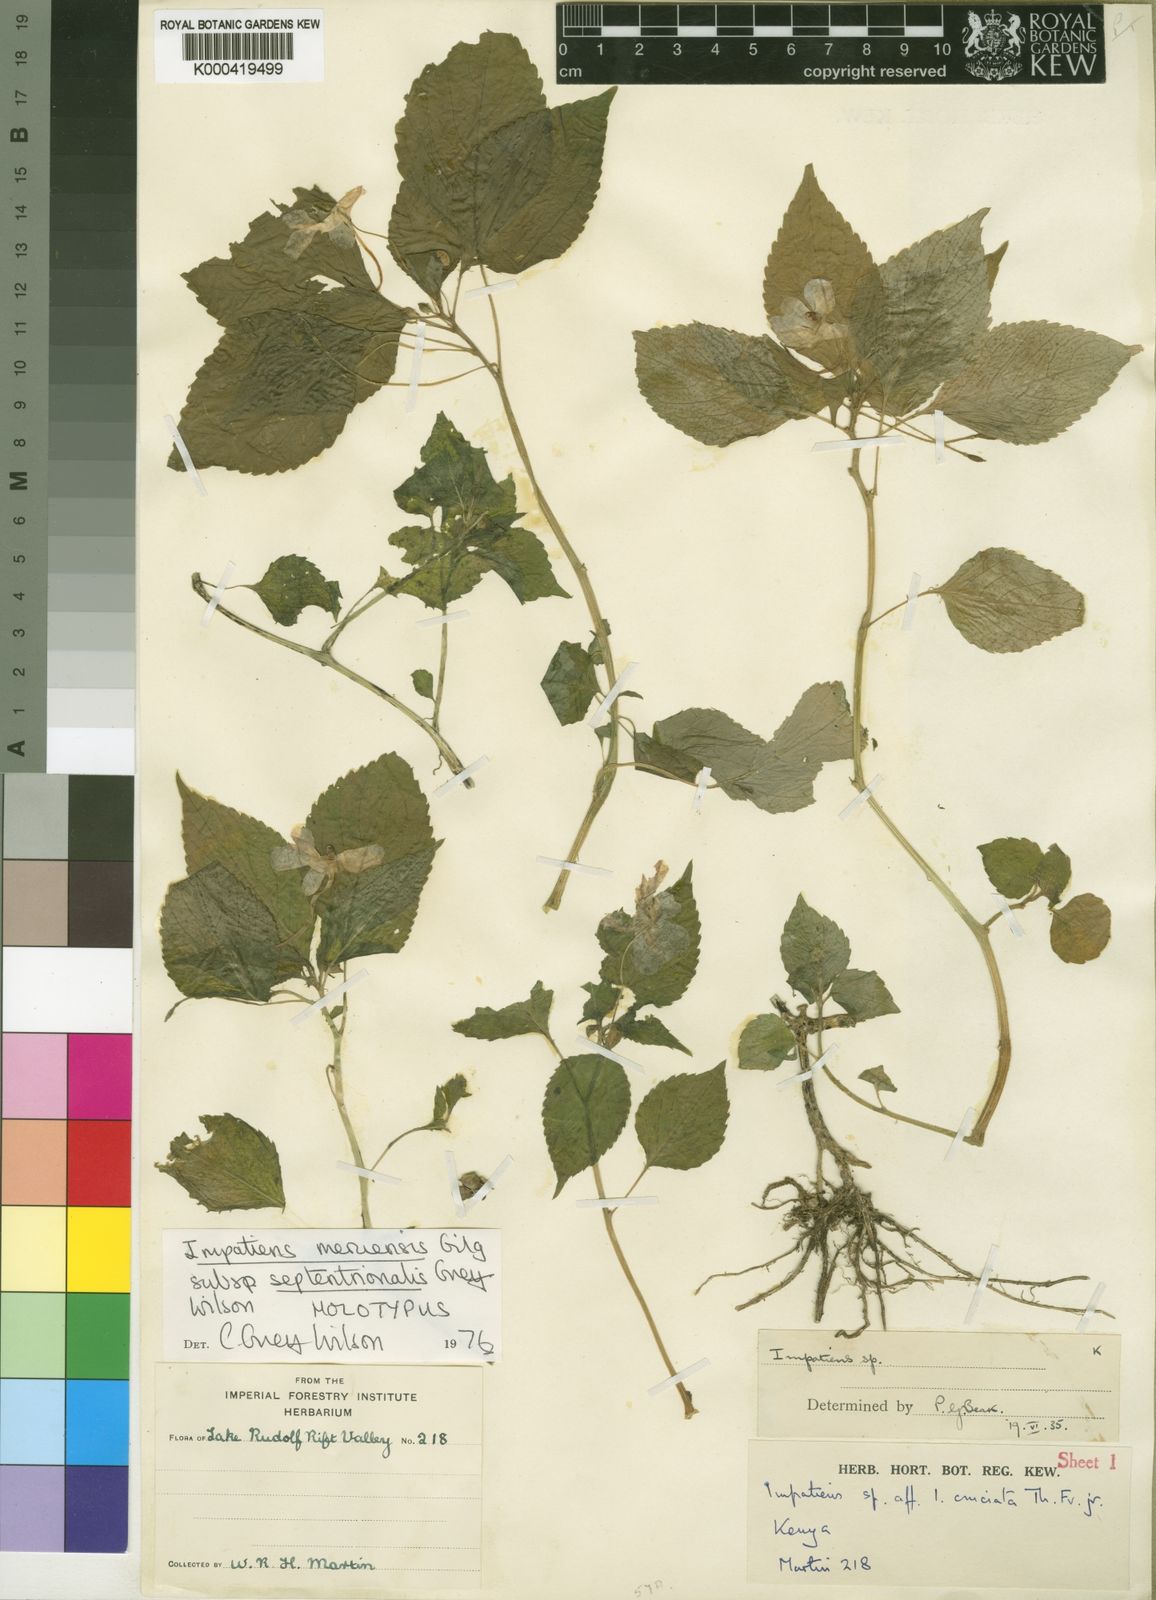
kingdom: Plantae
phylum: Tracheophyta
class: Magnoliopsida
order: Ericales
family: Balsaminaceae
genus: Impatiens
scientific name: Impatiens meruensis
